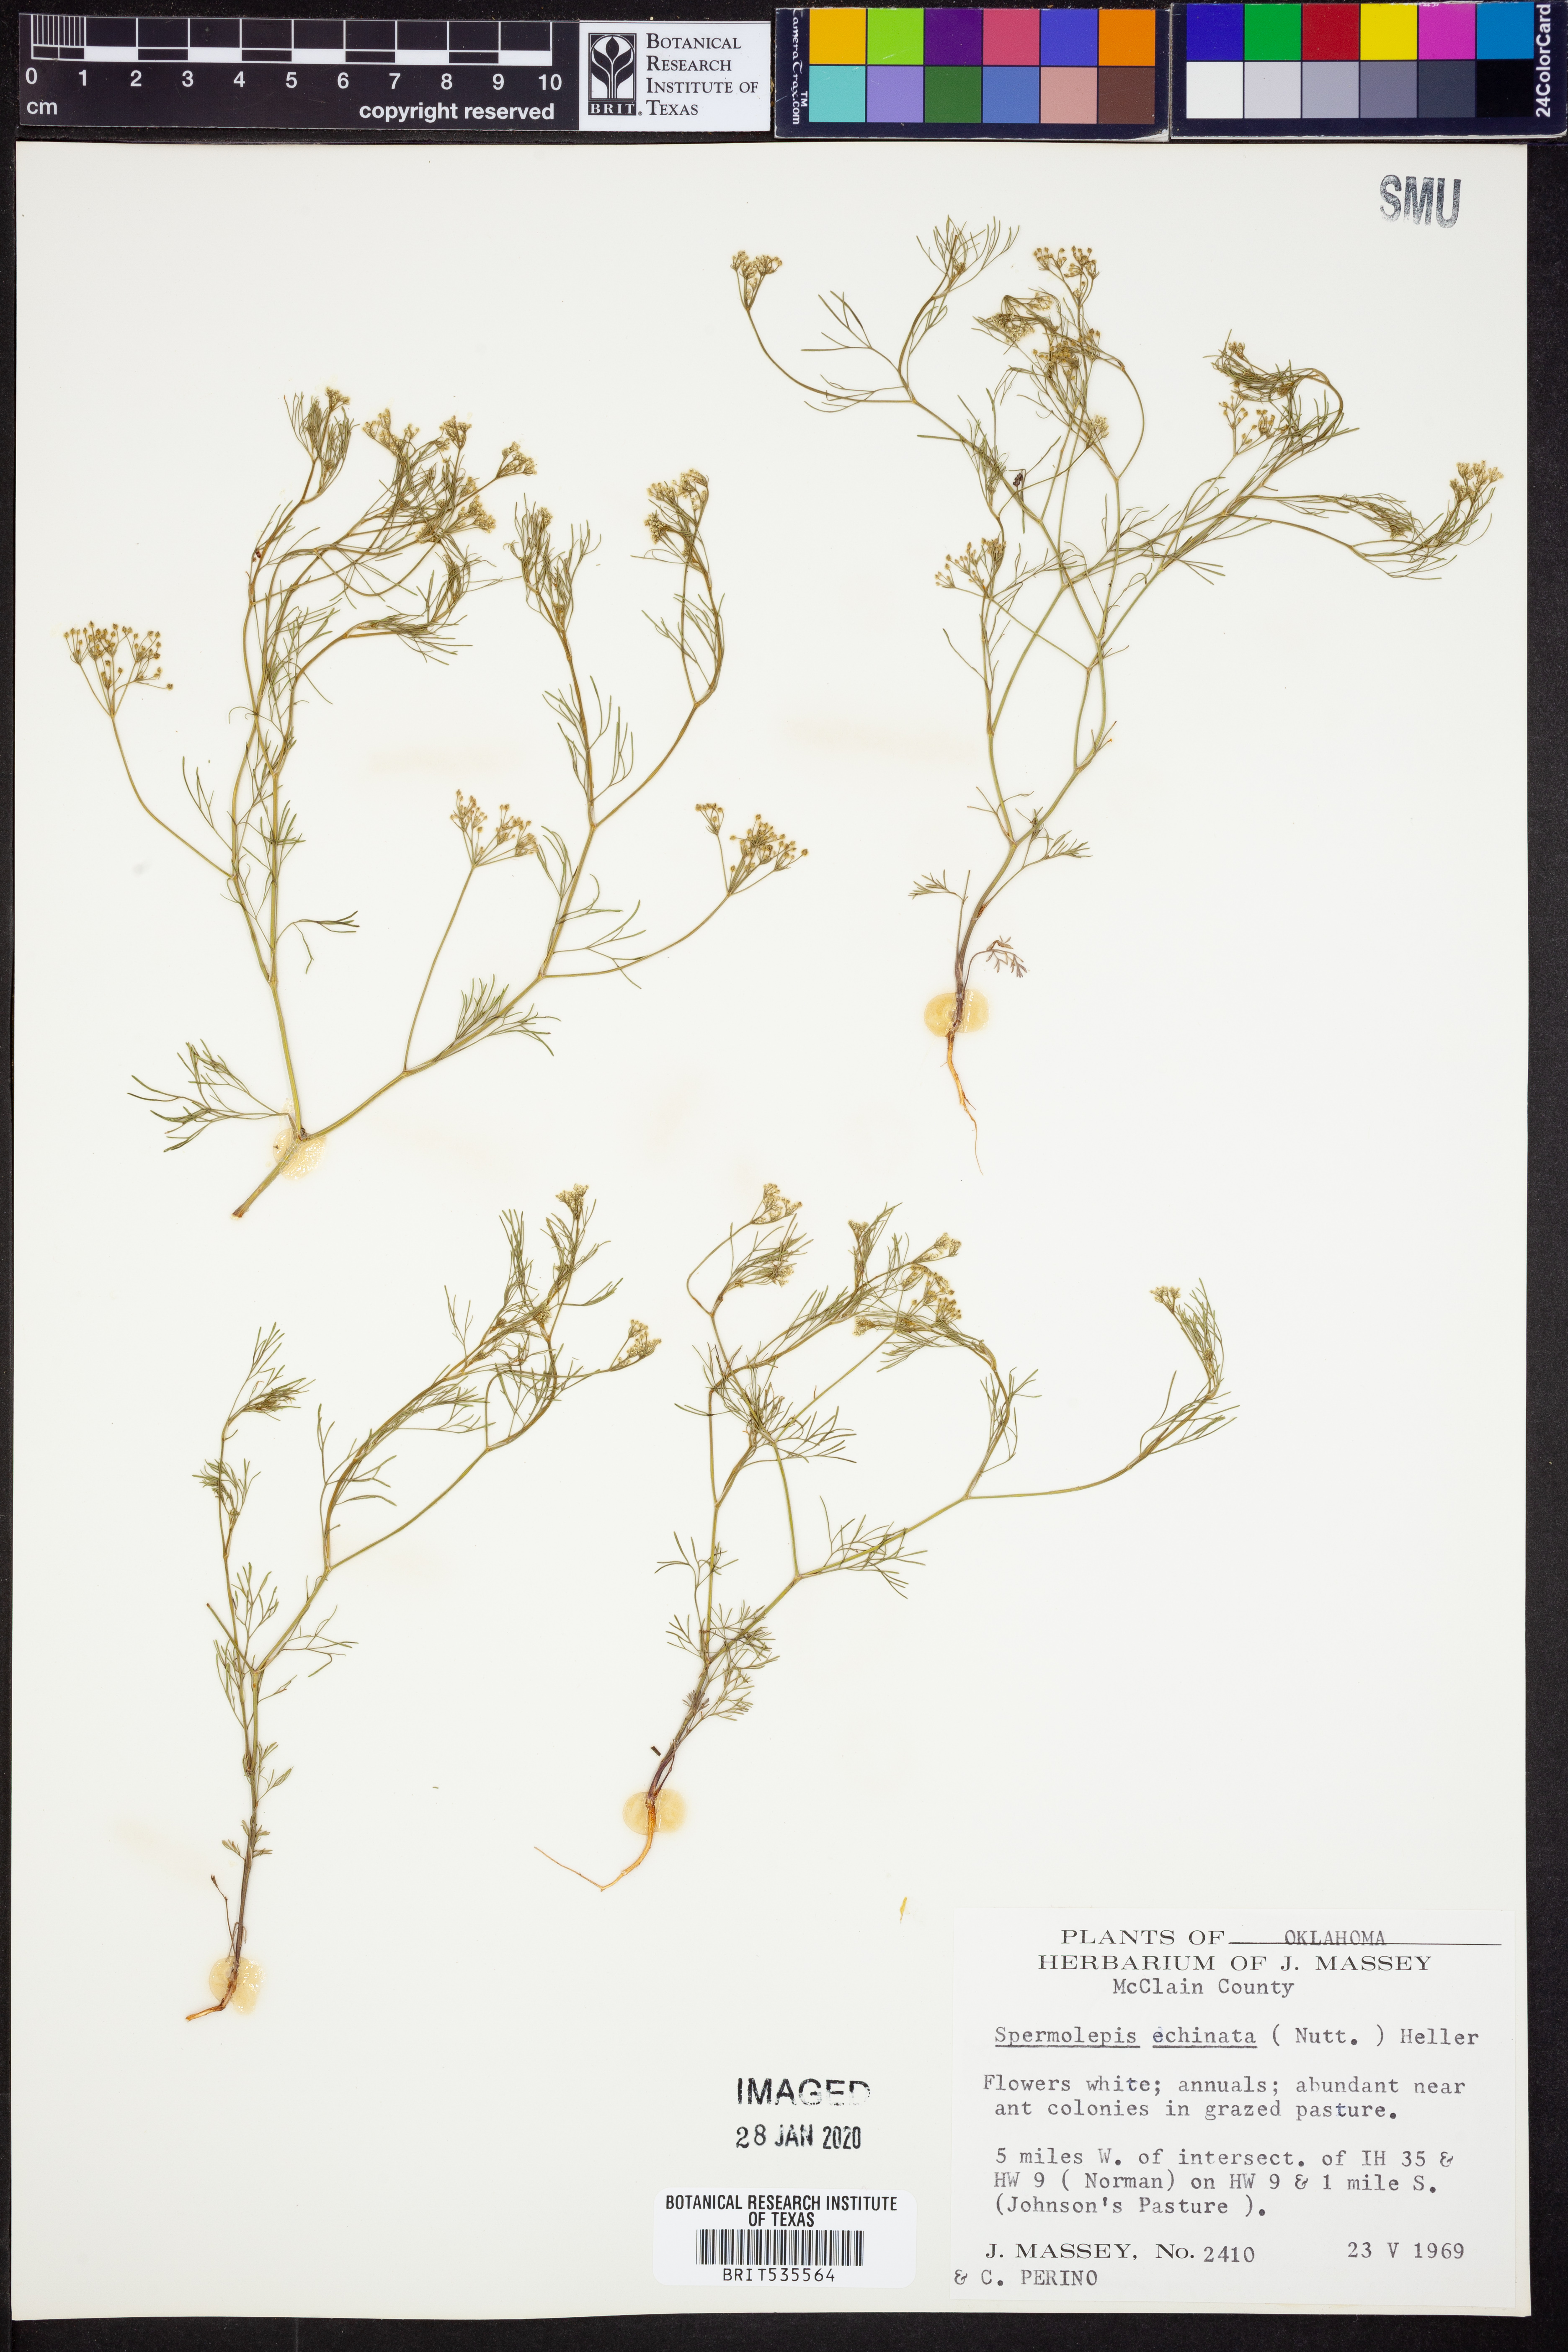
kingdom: Plantae
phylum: Tracheophyta
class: Magnoliopsida
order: Apiales
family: Apiaceae
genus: Spermolepis
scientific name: Spermolepis echinata
